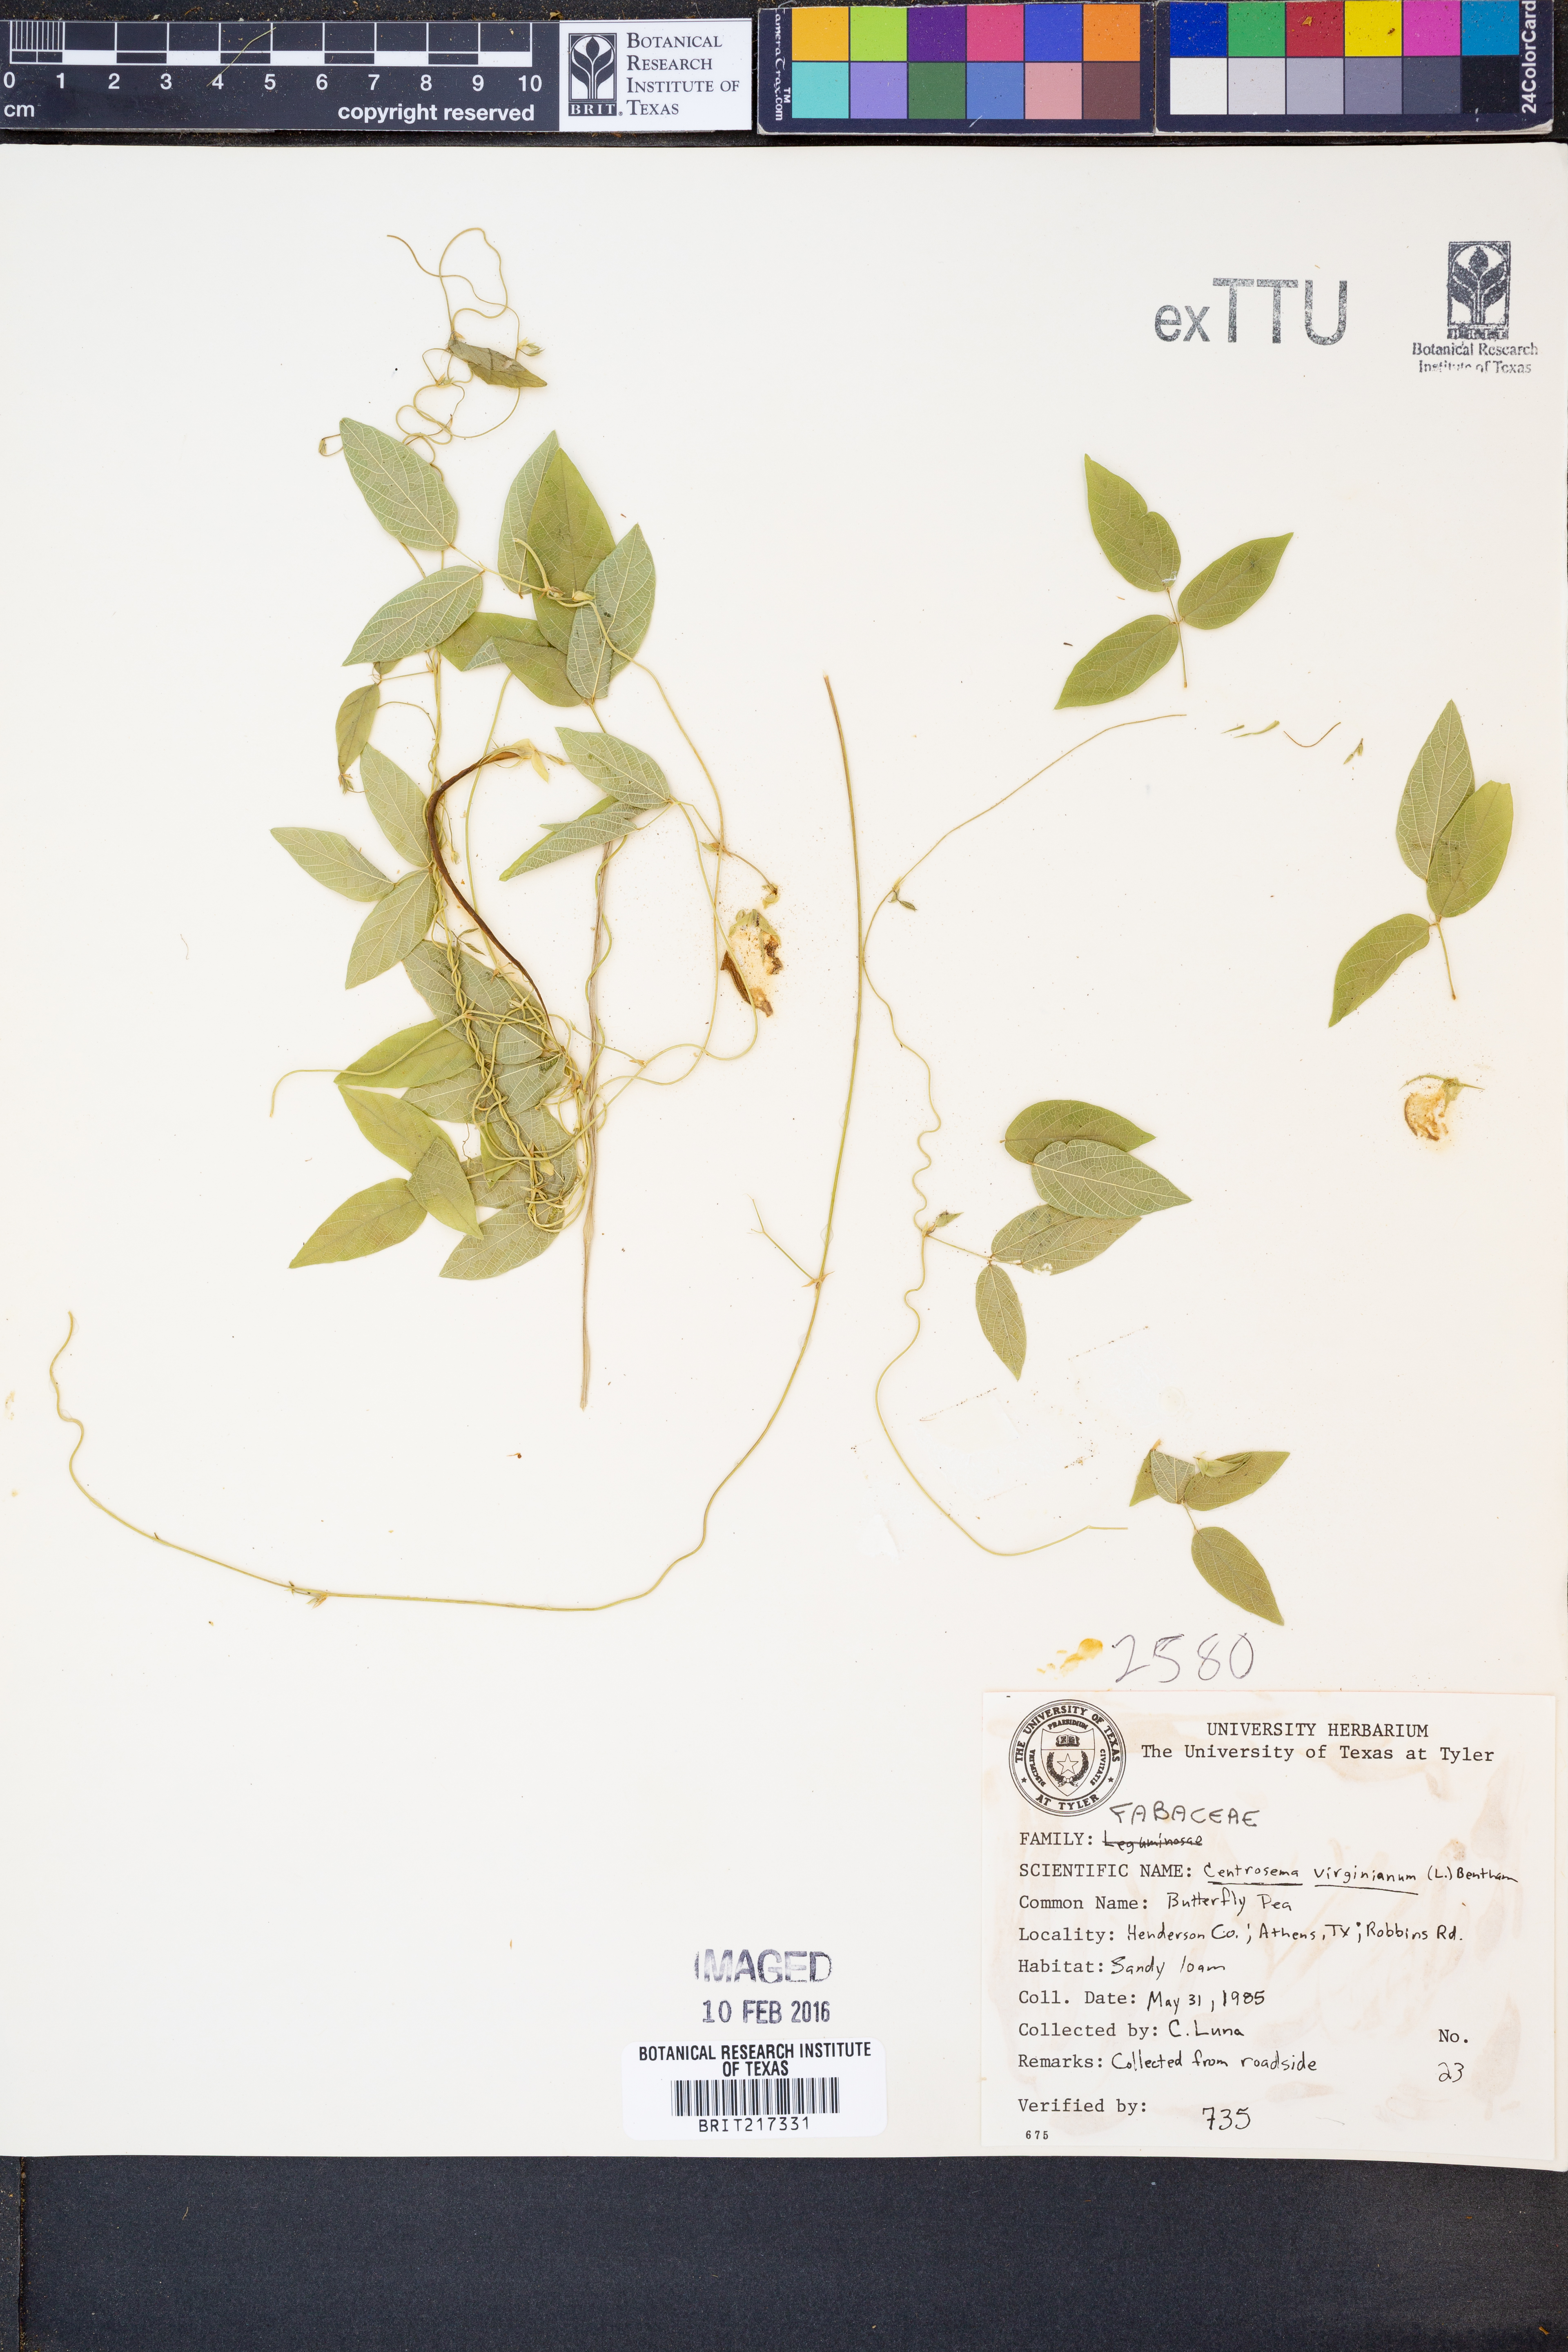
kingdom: Plantae
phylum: Tracheophyta
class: Magnoliopsida
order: Fabales
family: Fabaceae
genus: Centrosema
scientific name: Centrosema virginianum
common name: Butterfly-pea
